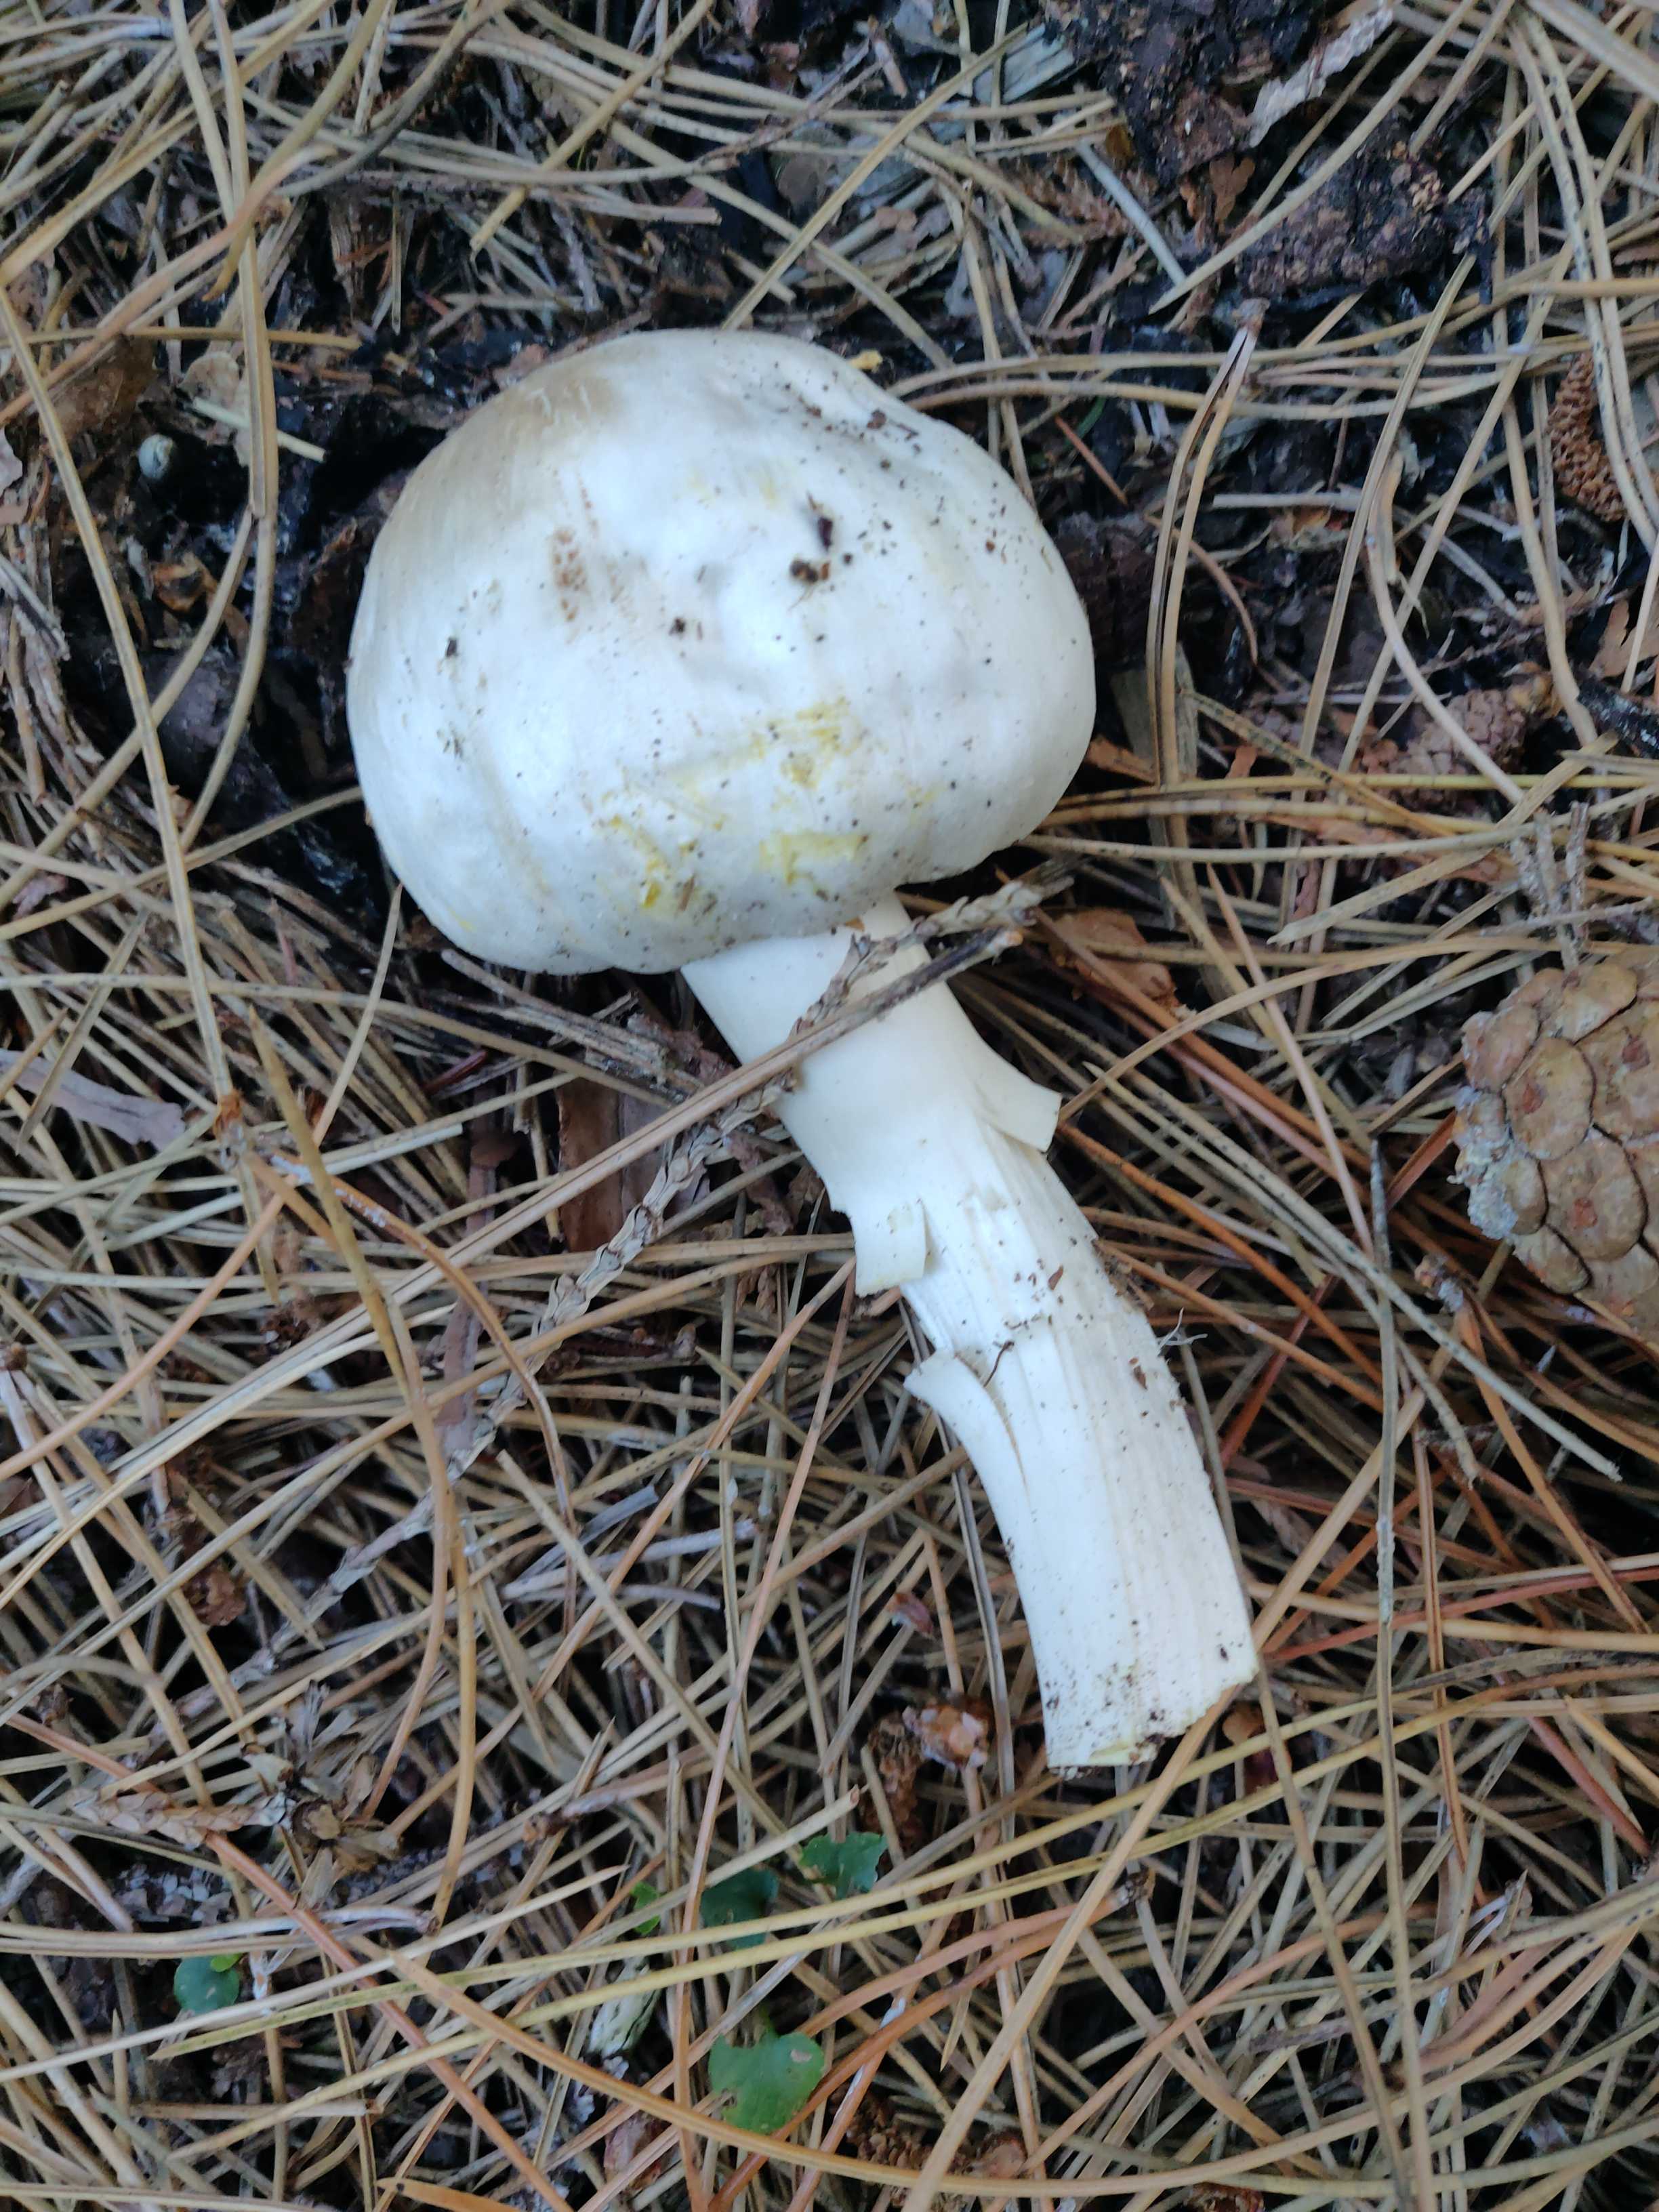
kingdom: Fungi
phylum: Basidiomycota
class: Agaricomycetes
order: Agaricales
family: Agaricaceae
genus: Agaricus
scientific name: Agaricus
